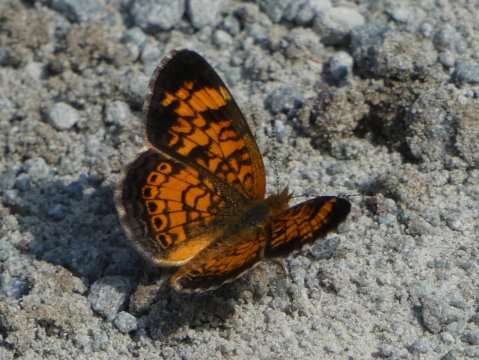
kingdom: Animalia
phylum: Arthropoda
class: Insecta
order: Lepidoptera
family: Nymphalidae
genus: Phyciodes
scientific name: Phyciodes tharos
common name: Pearl Crescent
